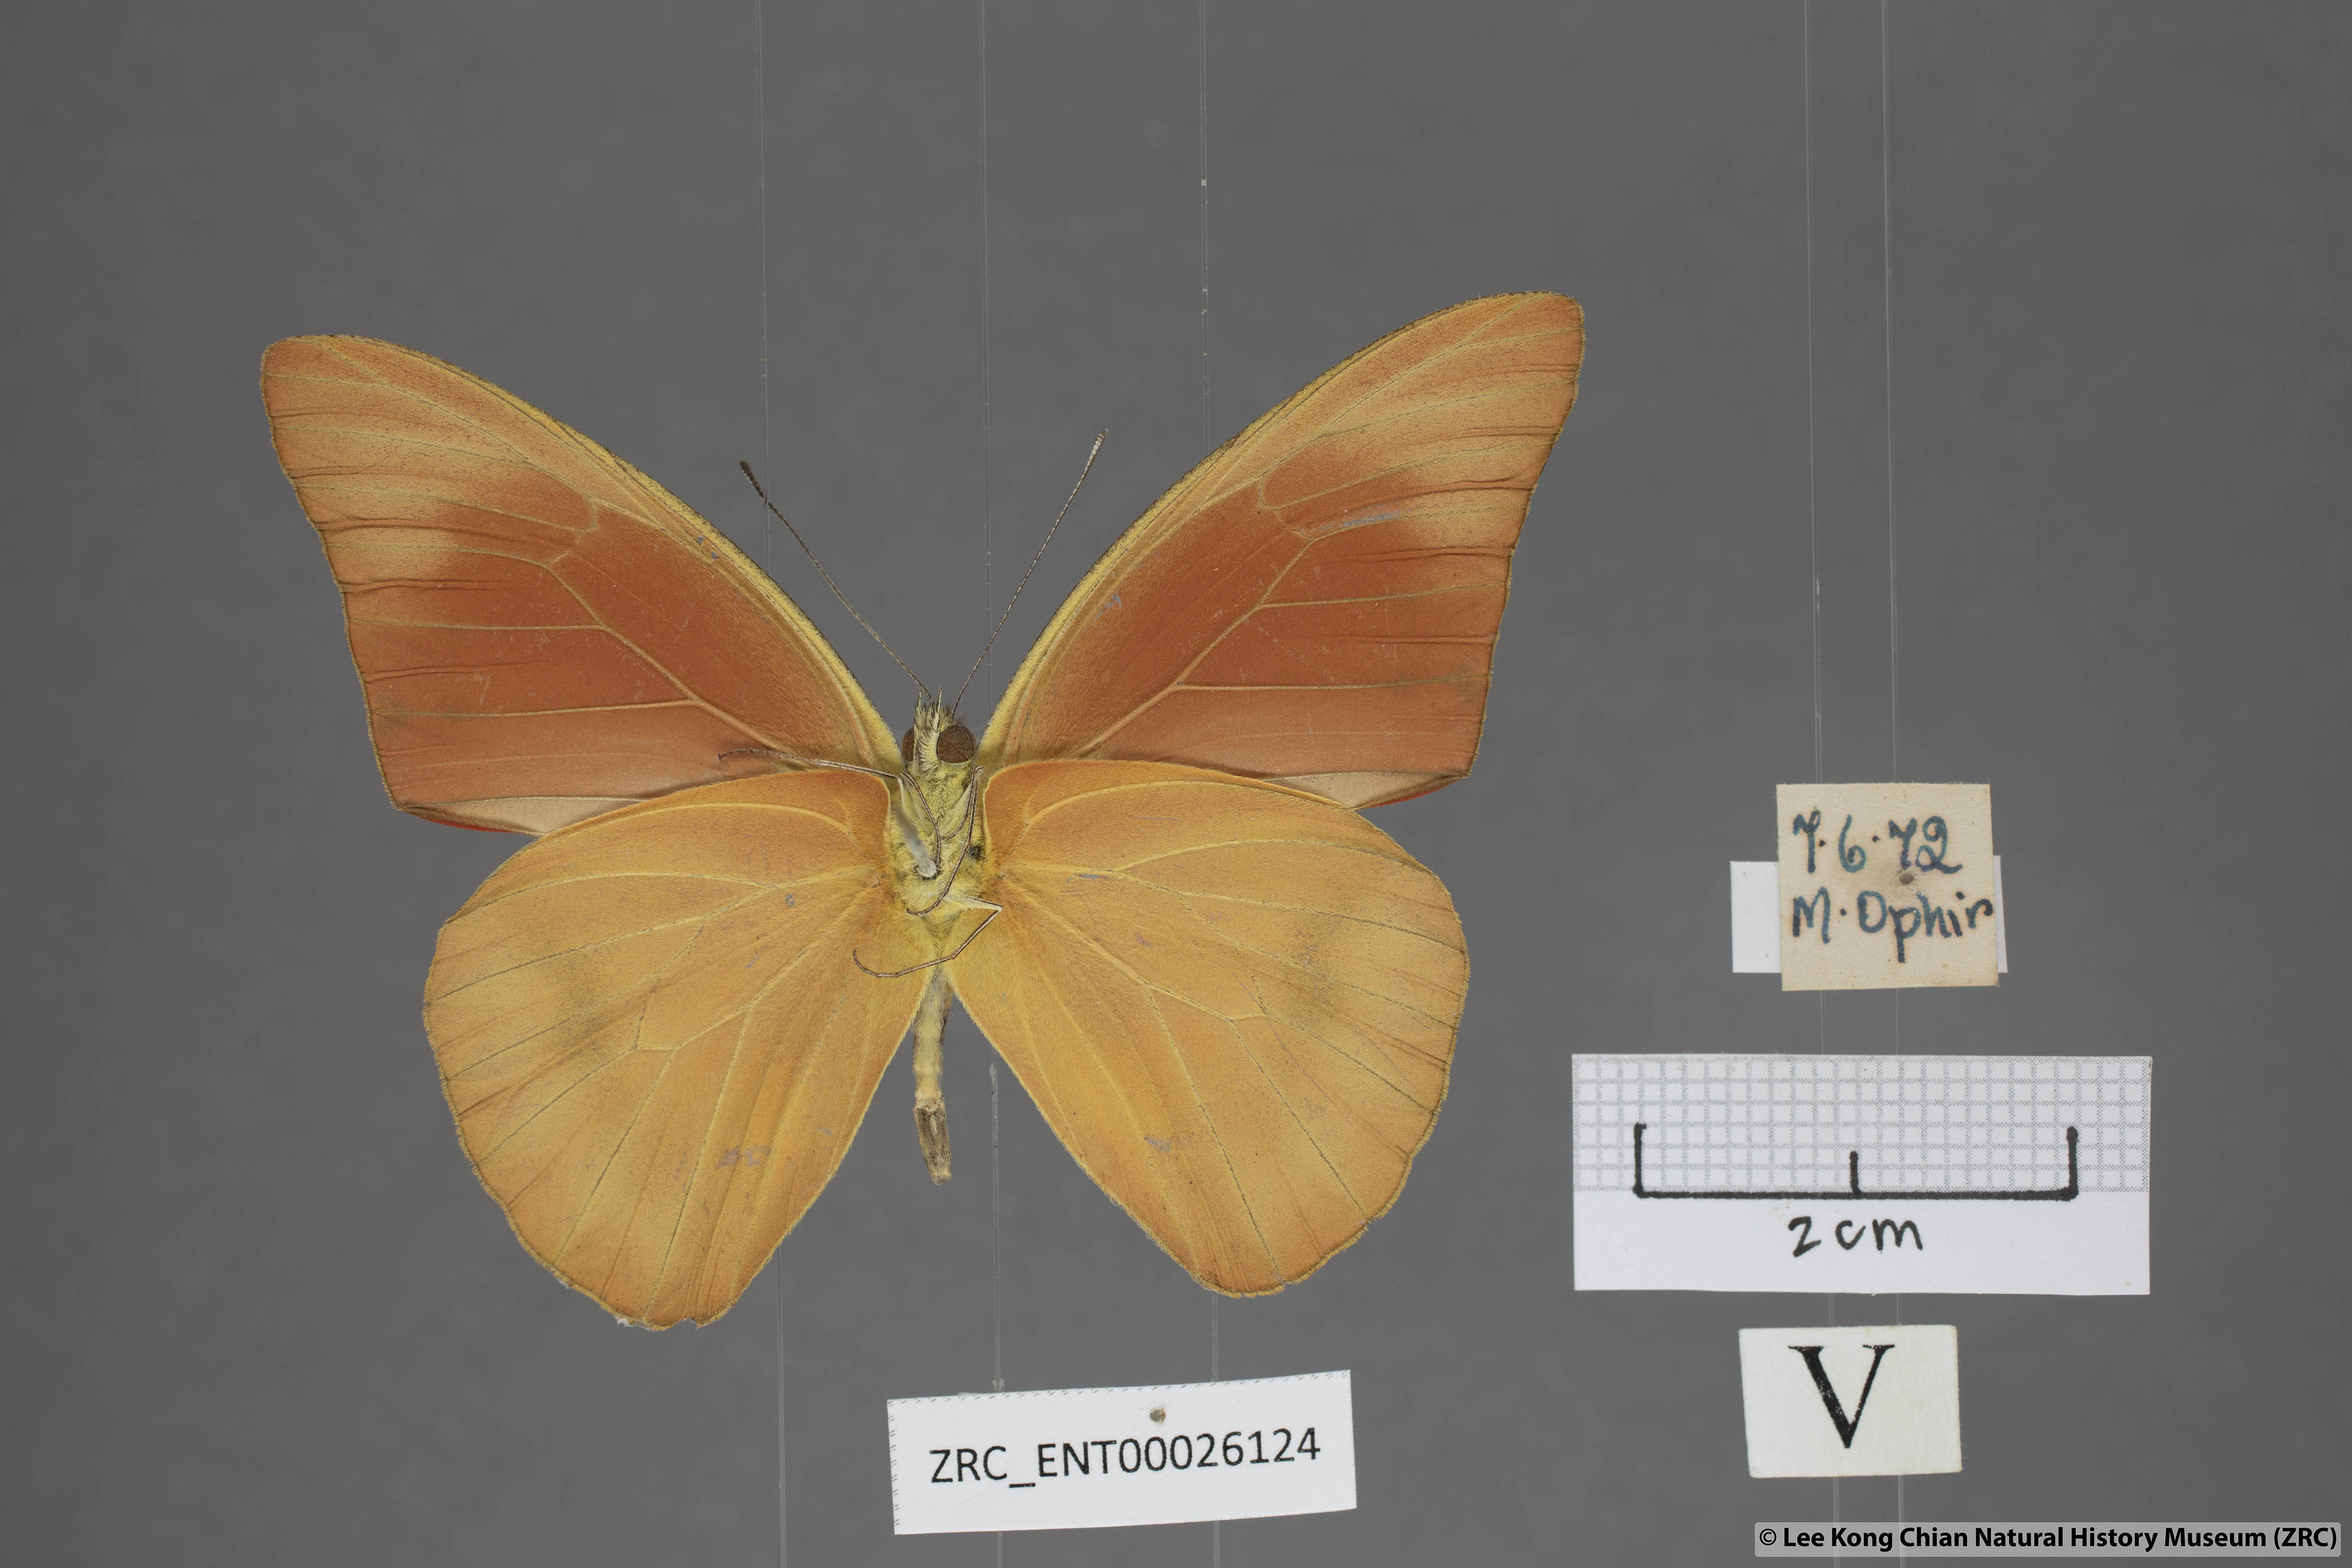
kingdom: Animalia
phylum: Arthropoda
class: Insecta
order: Lepidoptera
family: Pieridae
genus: Appias
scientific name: Appias nero
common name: Orange albatross
